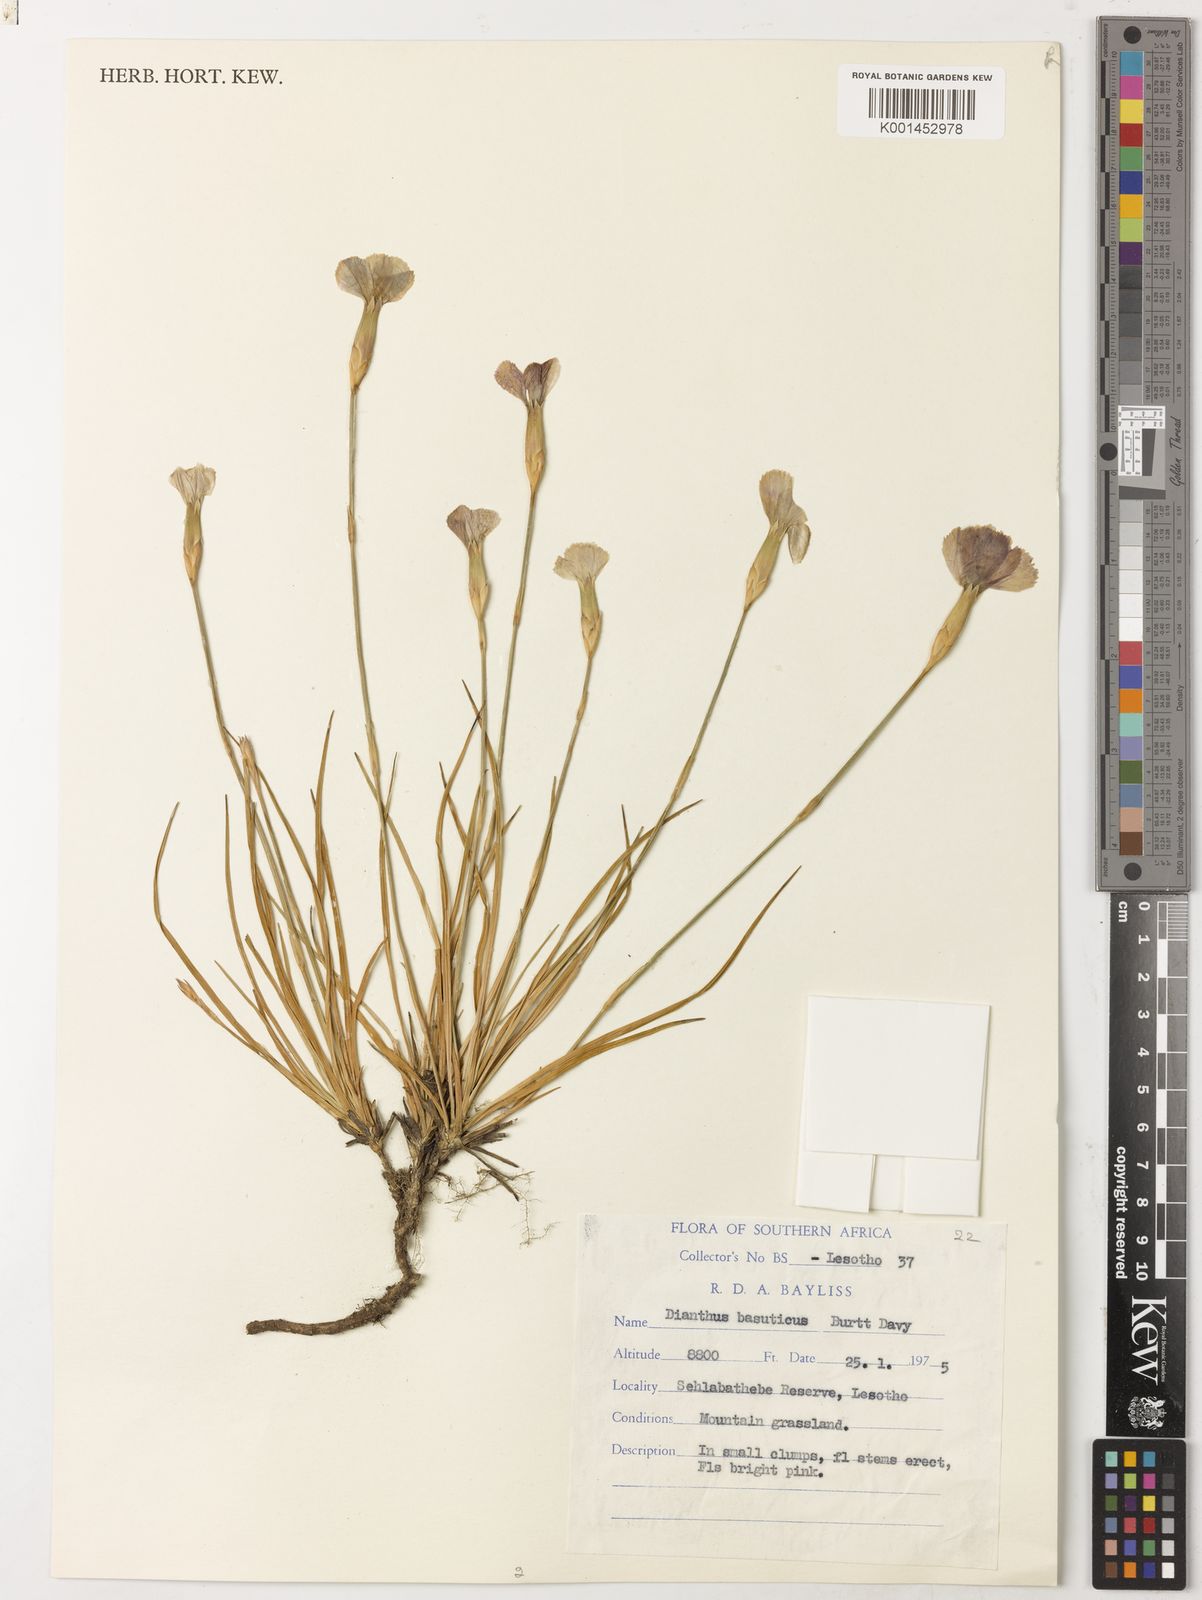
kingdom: Plantae
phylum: Tracheophyta
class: Magnoliopsida
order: Caryophyllales
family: Caryophyllaceae
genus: Dianthus
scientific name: Dianthus basuticus
